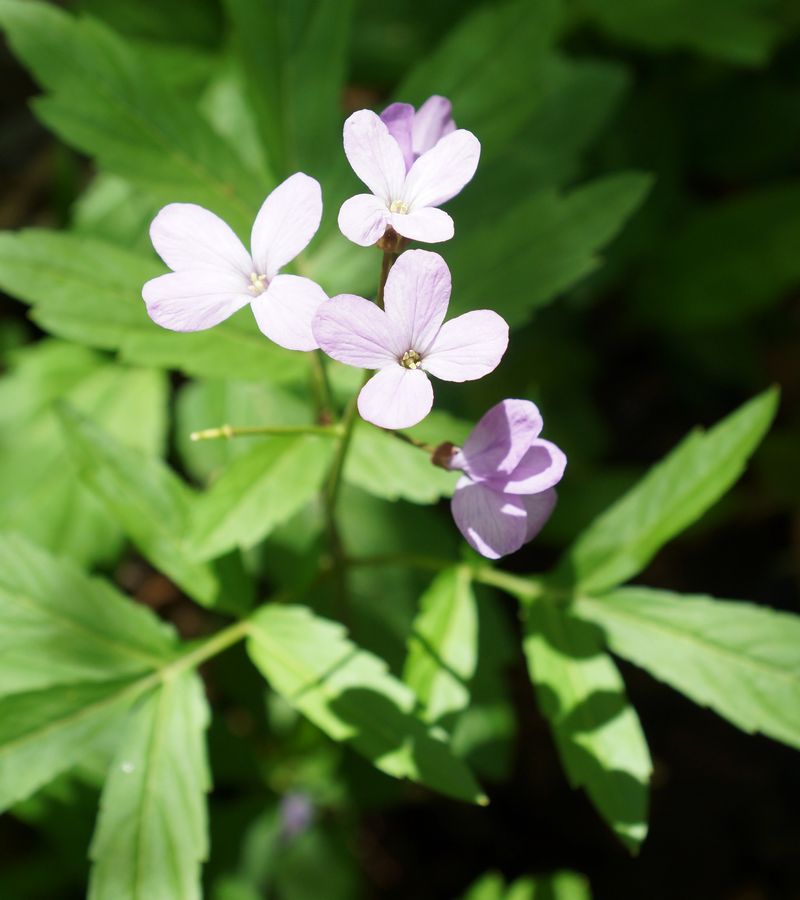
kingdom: Plantae
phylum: Tracheophyta
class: Magnoliopsida
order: Brassicales
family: Brassicaceae
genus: Cardamine
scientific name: Cardamine bulbifera
